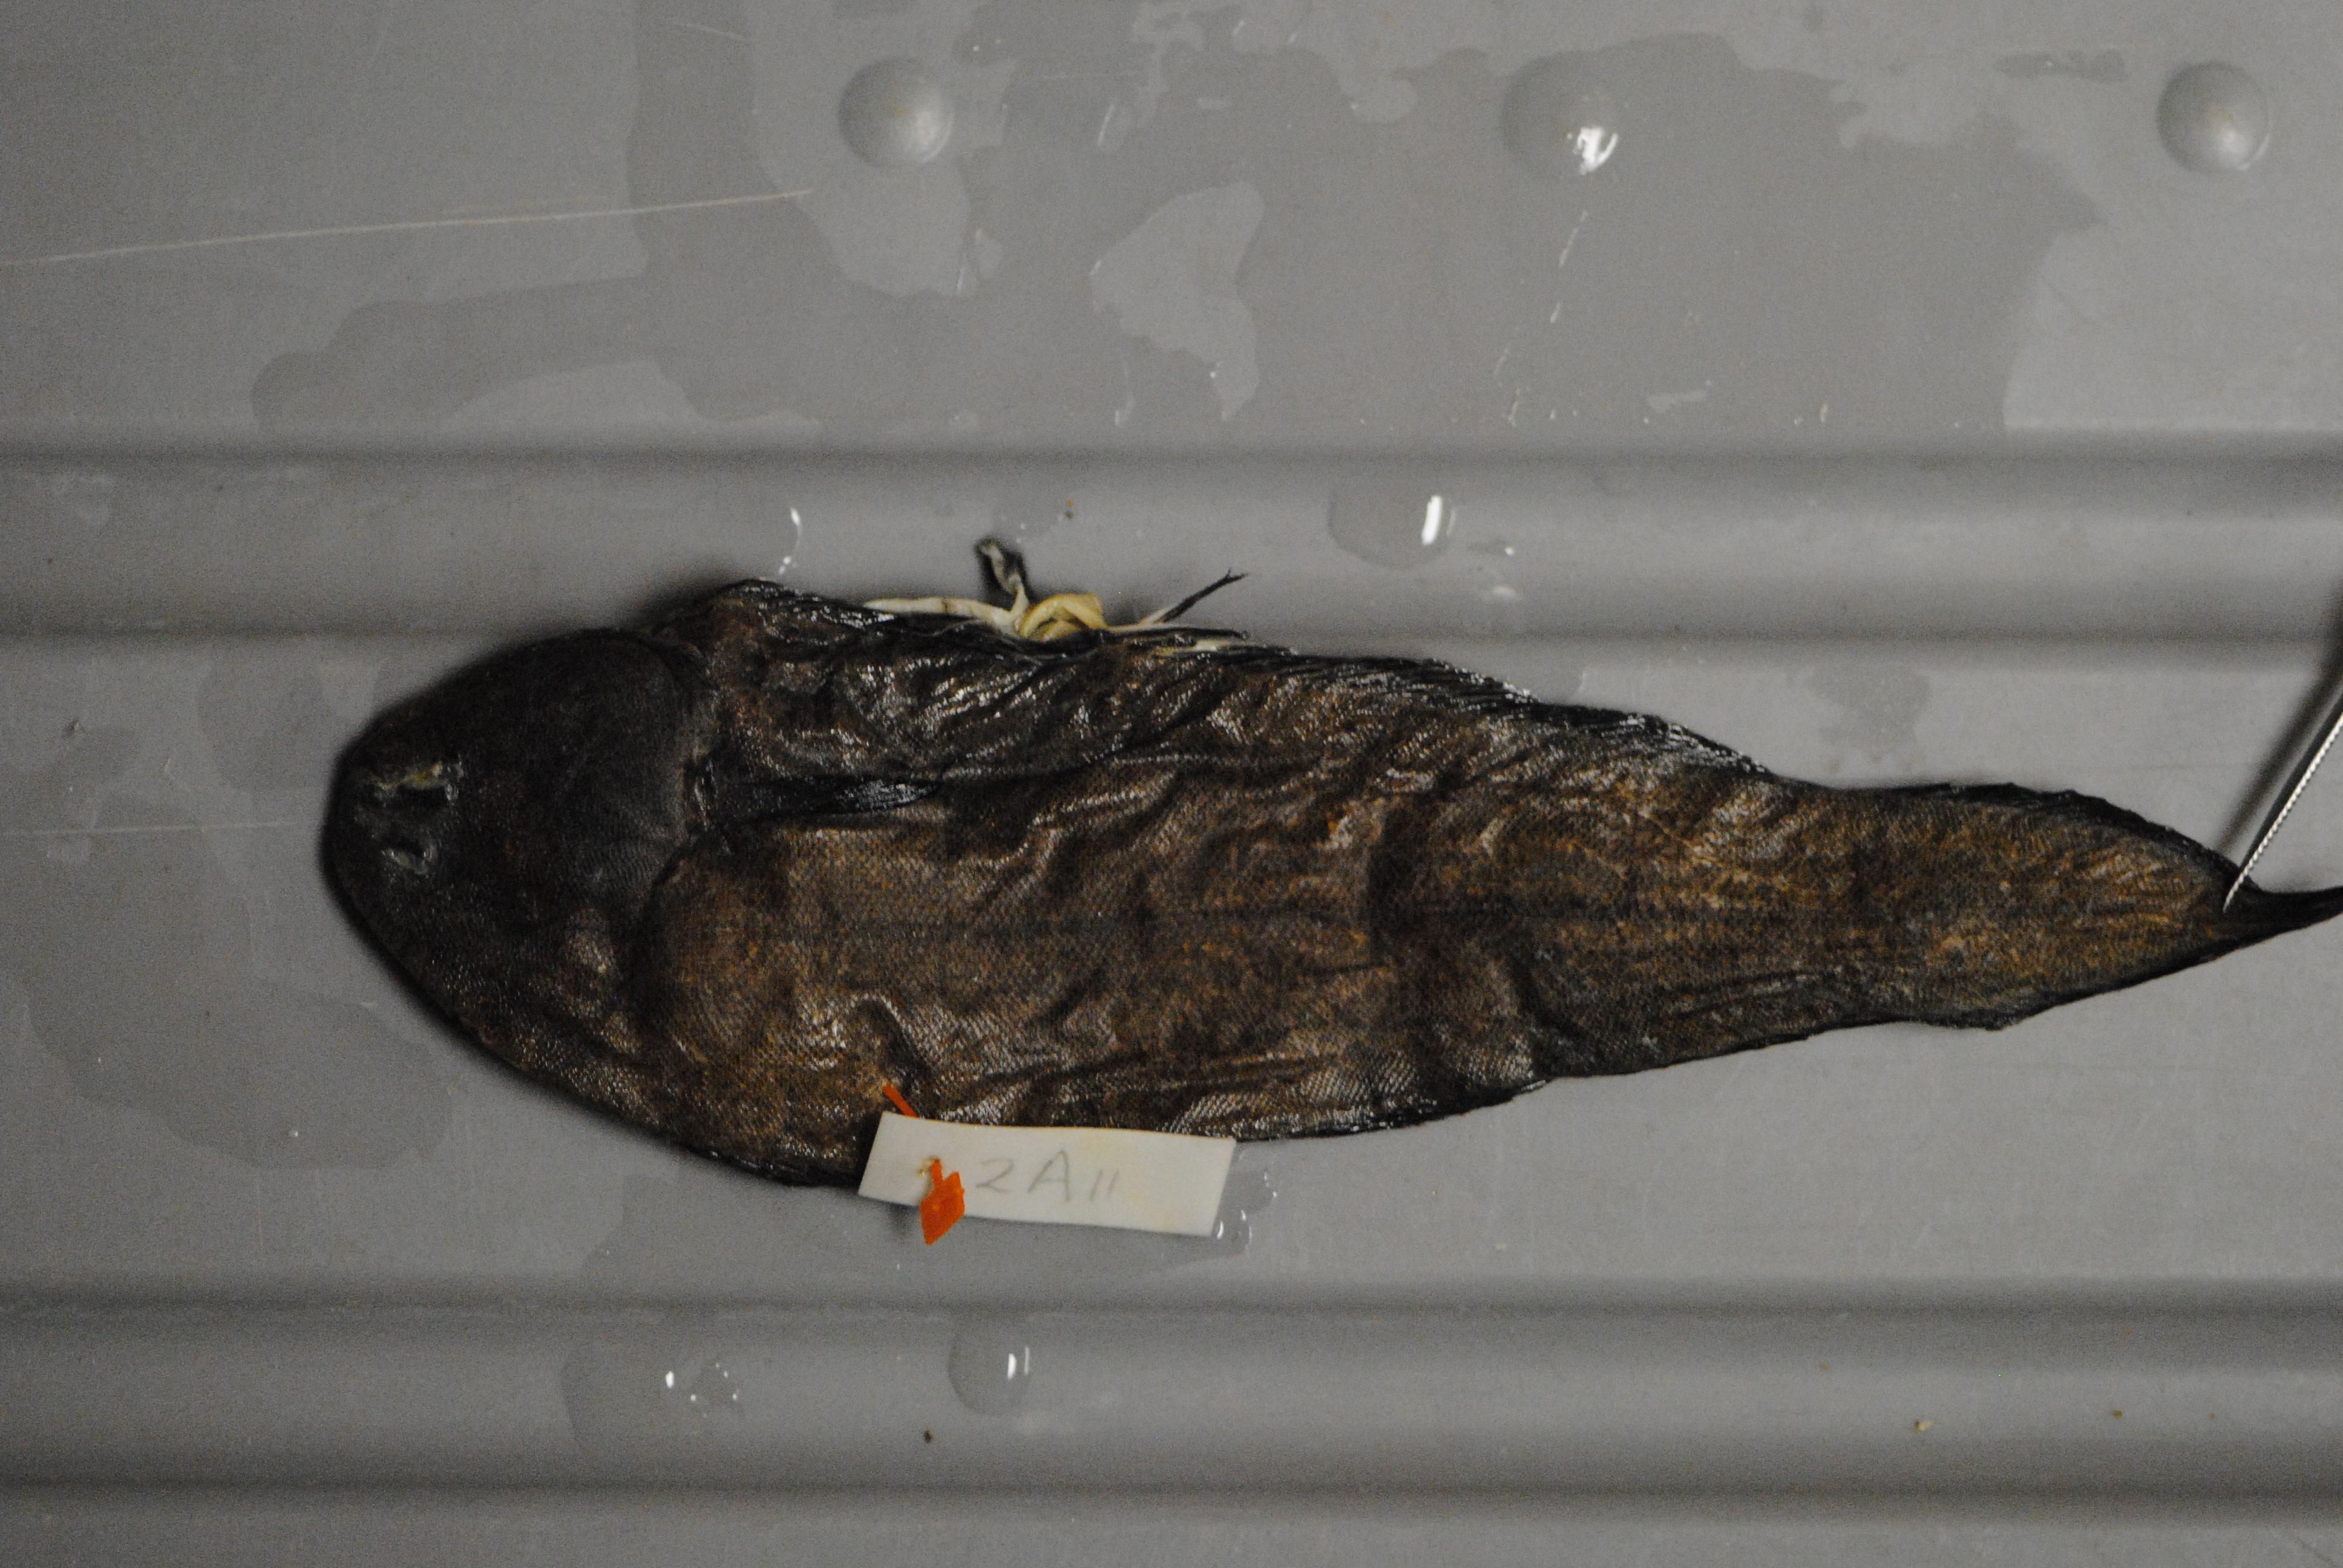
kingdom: Animalia
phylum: Chordata
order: Pleuronectiformes
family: Soleidae
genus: Austroglossus
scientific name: Austroglossus microlepis
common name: West coast sole
